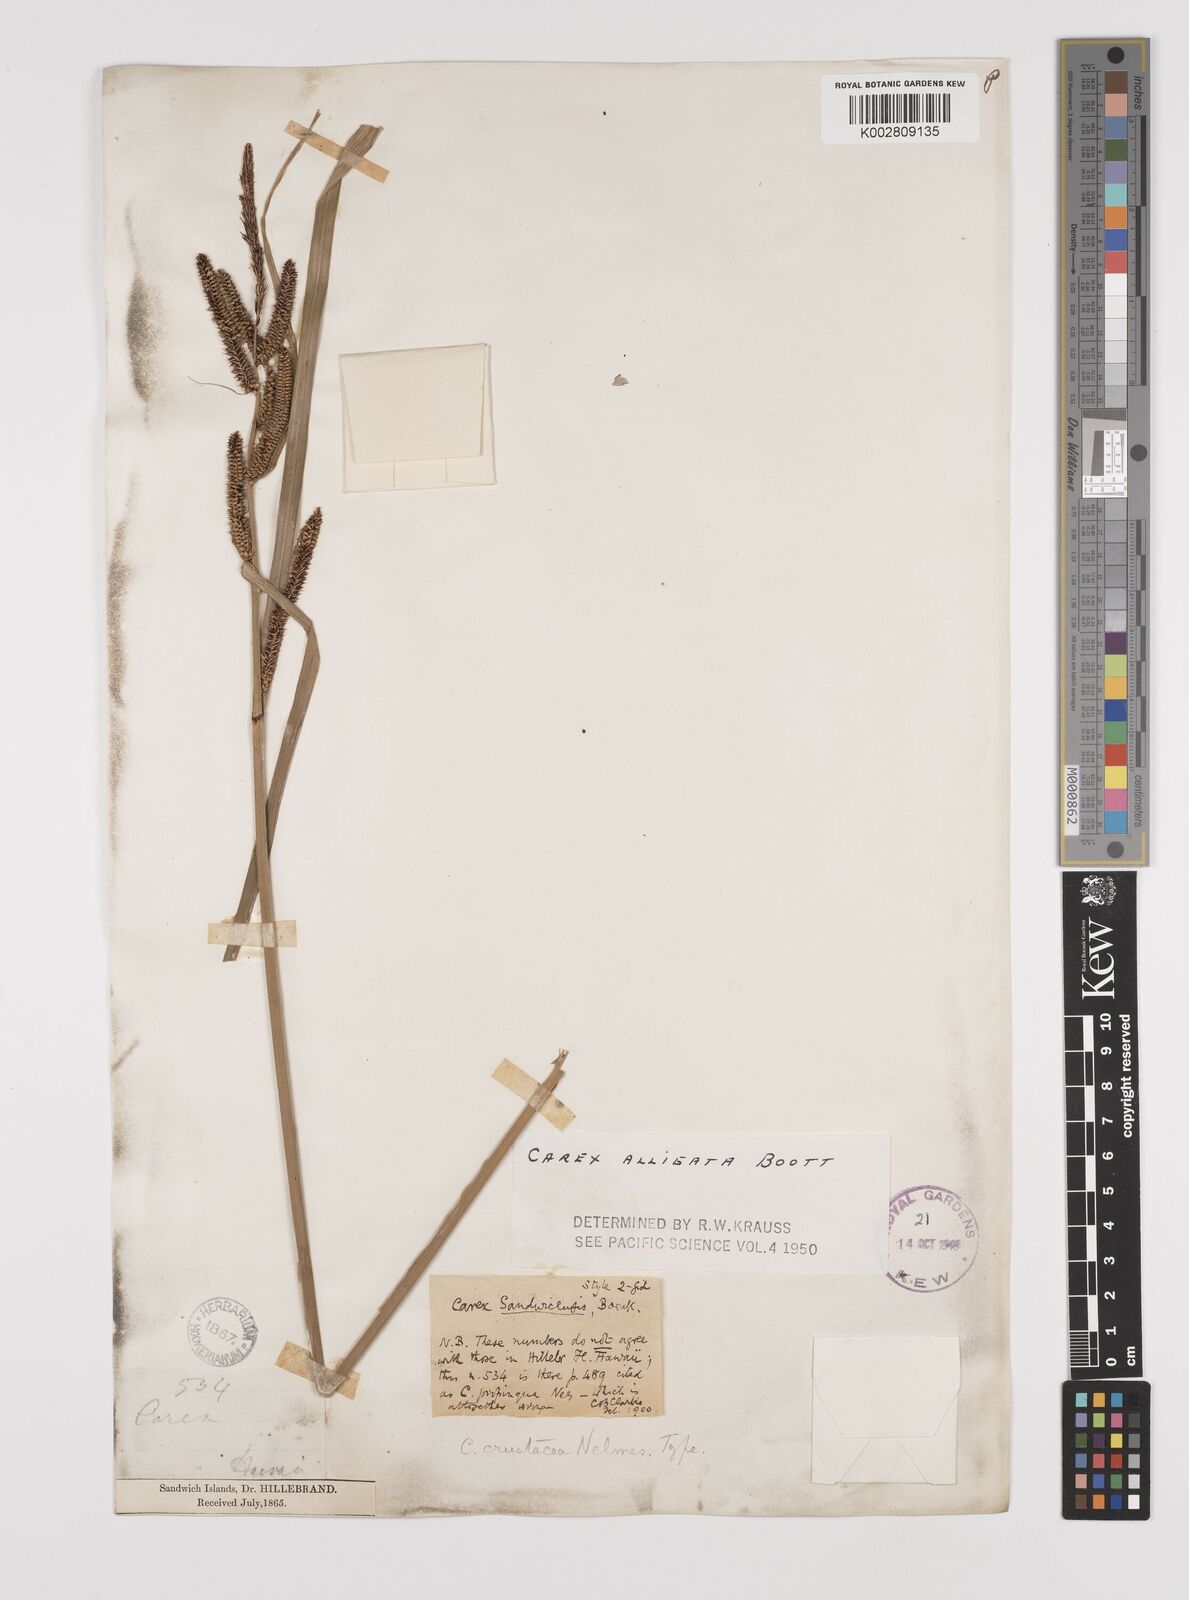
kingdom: Plantae
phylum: Tracheophyta
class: Liliopsida
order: Poales
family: Cyperaceae
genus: Carex
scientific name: Carex alligata
